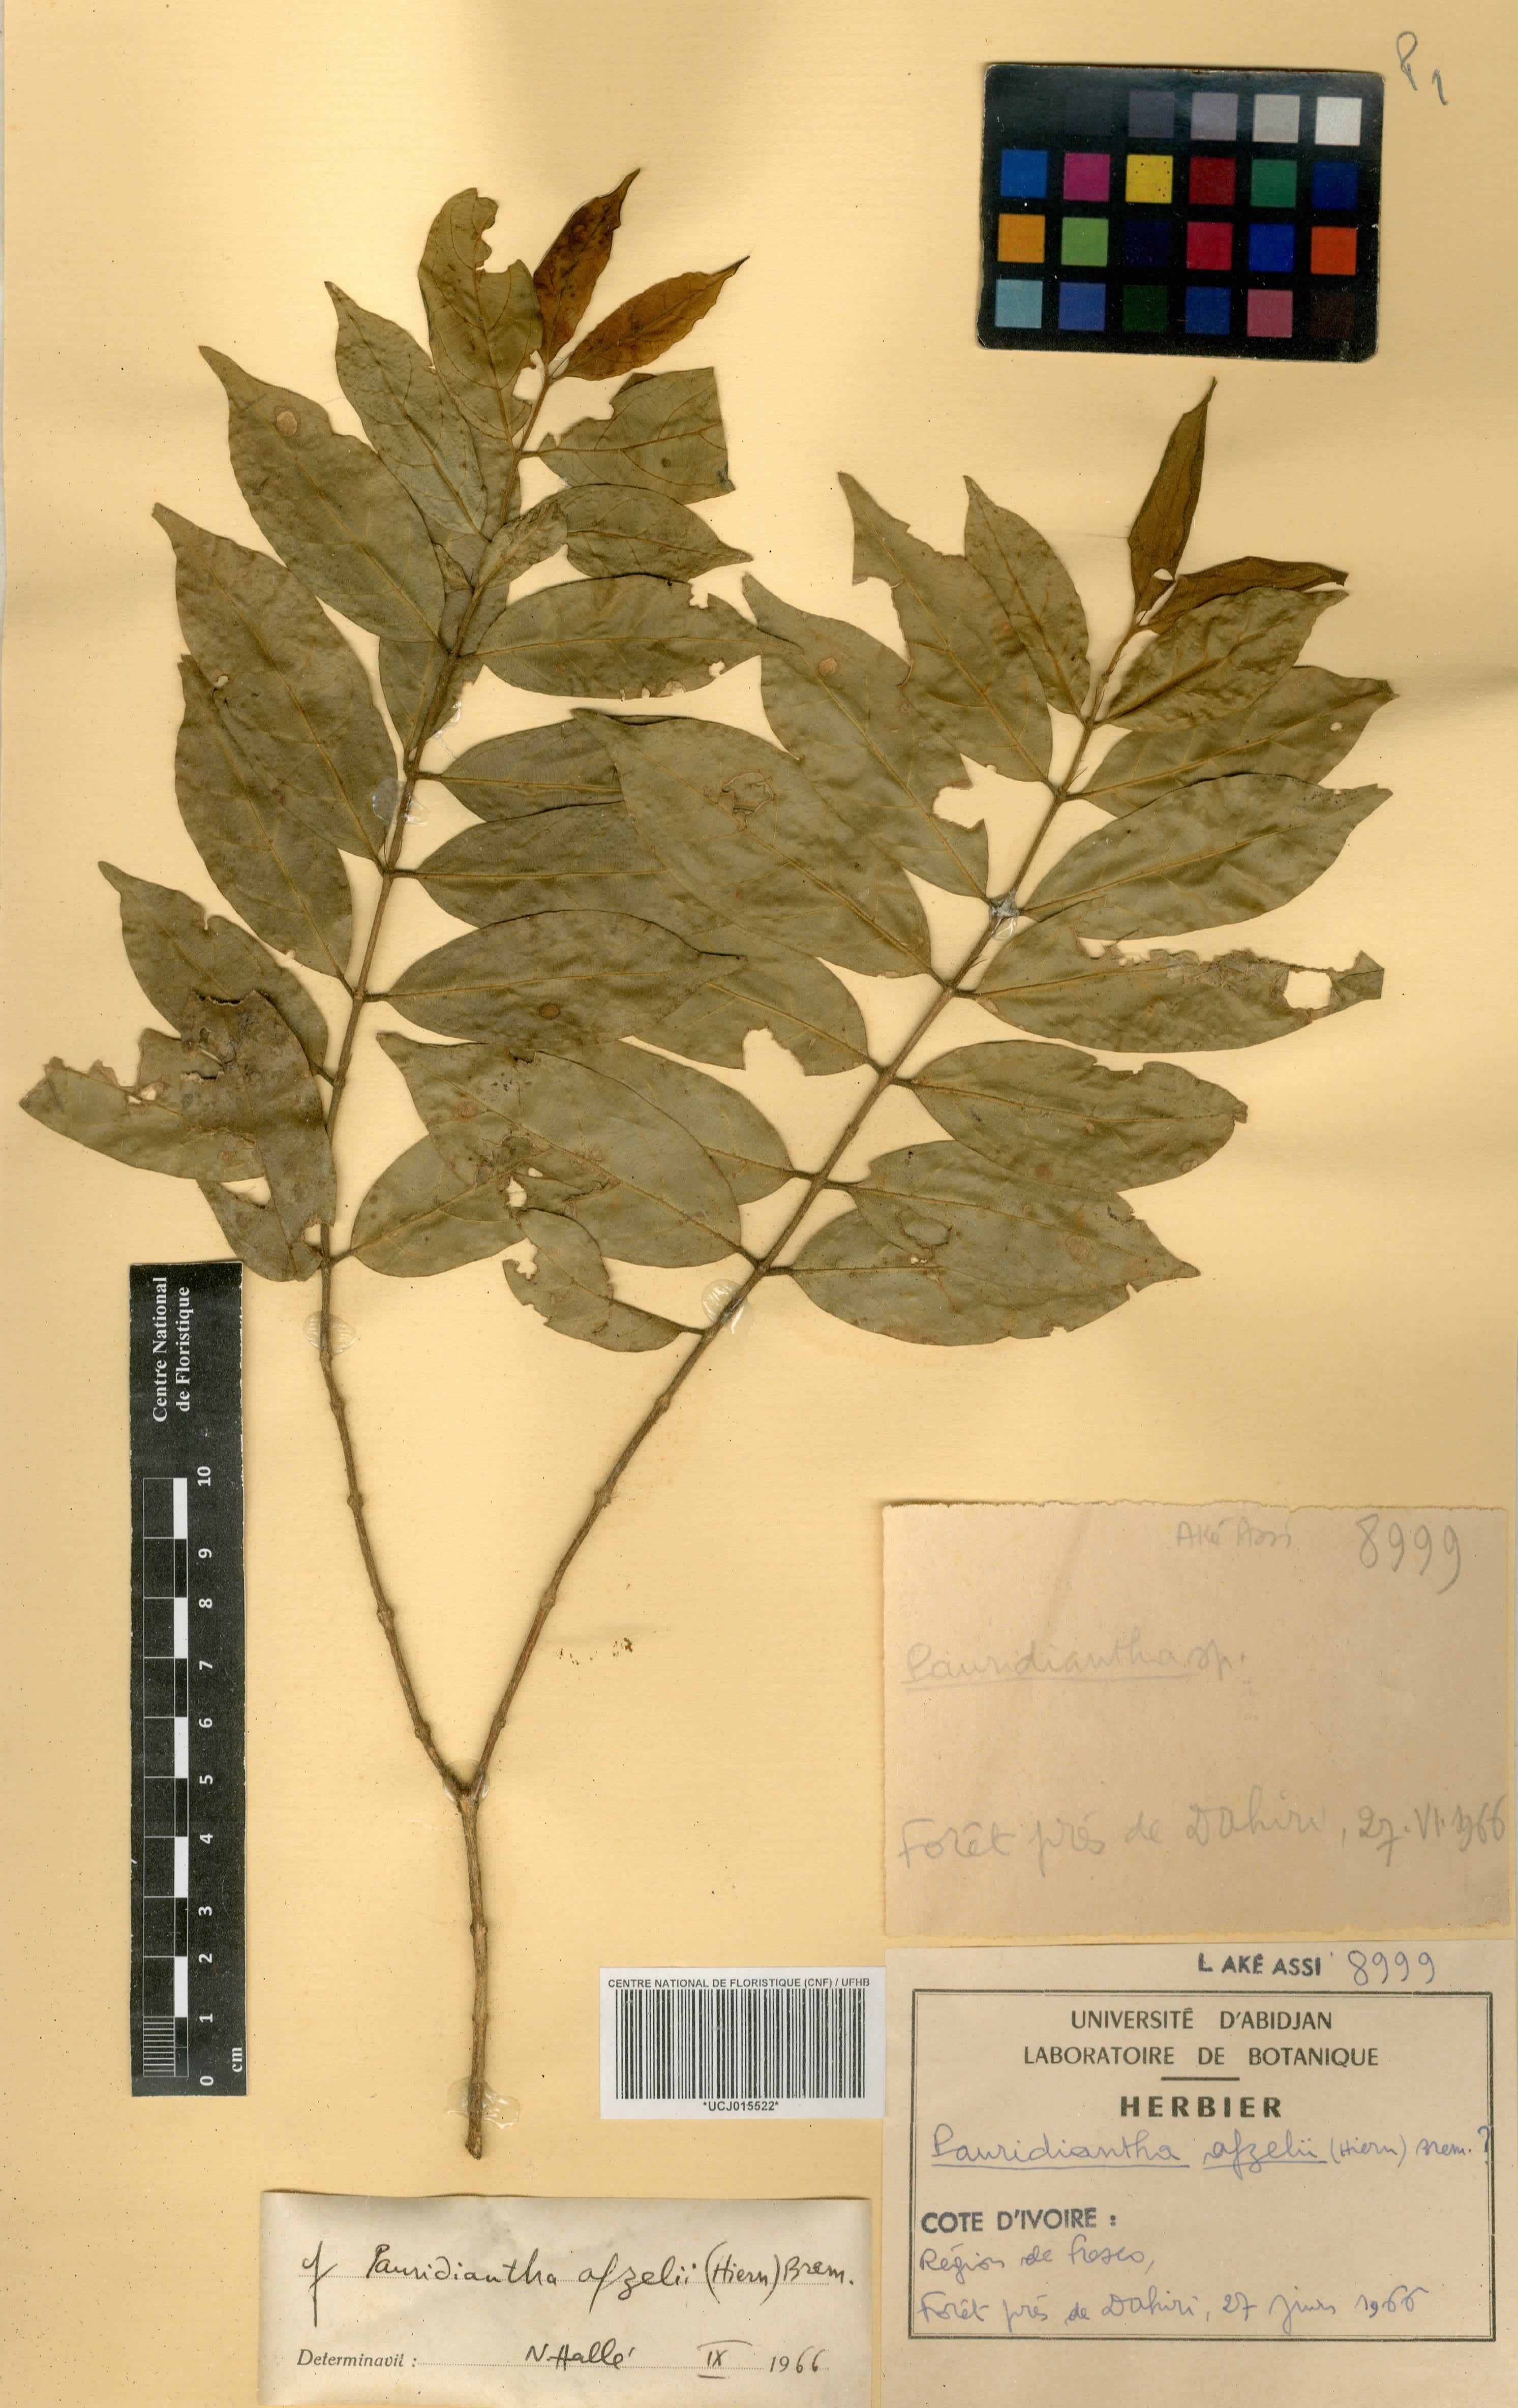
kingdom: Plantae
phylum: Tracheophyta
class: Magnoliopsida
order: Gentianales
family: Rubiaceae
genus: Pauridiantha
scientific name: Pauridiantha afzelii
